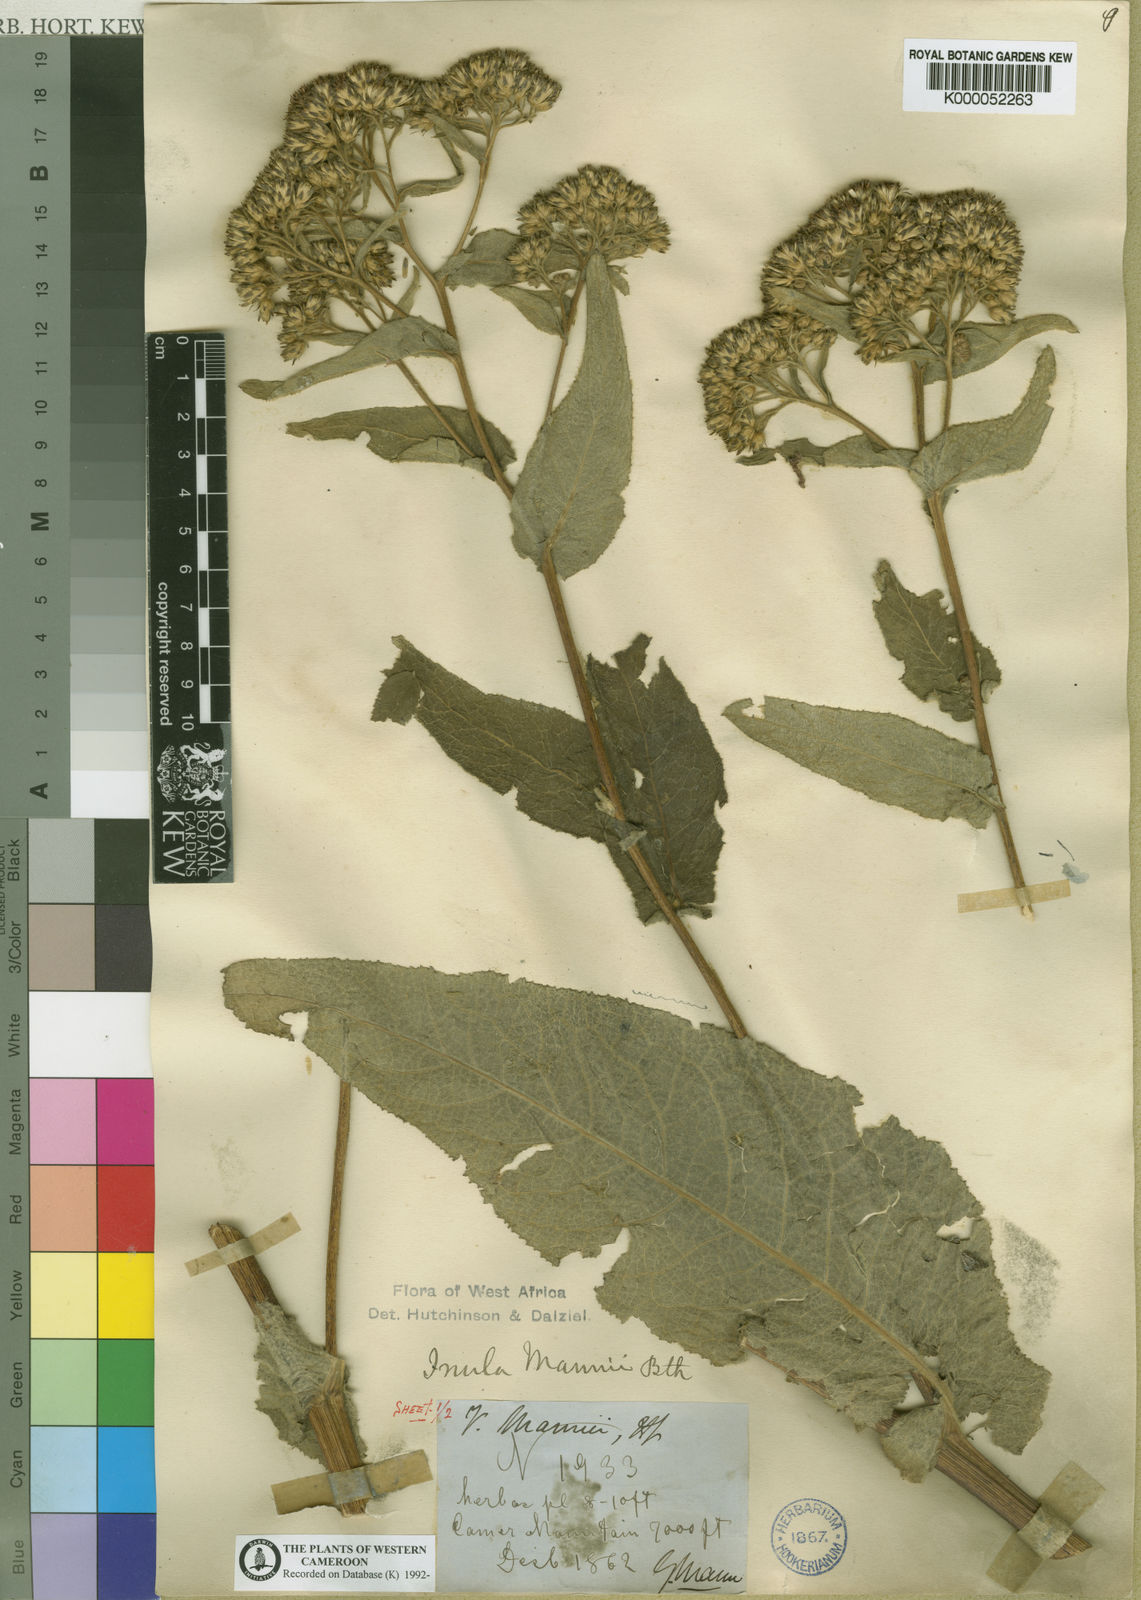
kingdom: Plantae
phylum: Tracheophyta
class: Magnoliopsida
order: Asterales
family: Asteraceae
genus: Inula
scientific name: Inula mannii
